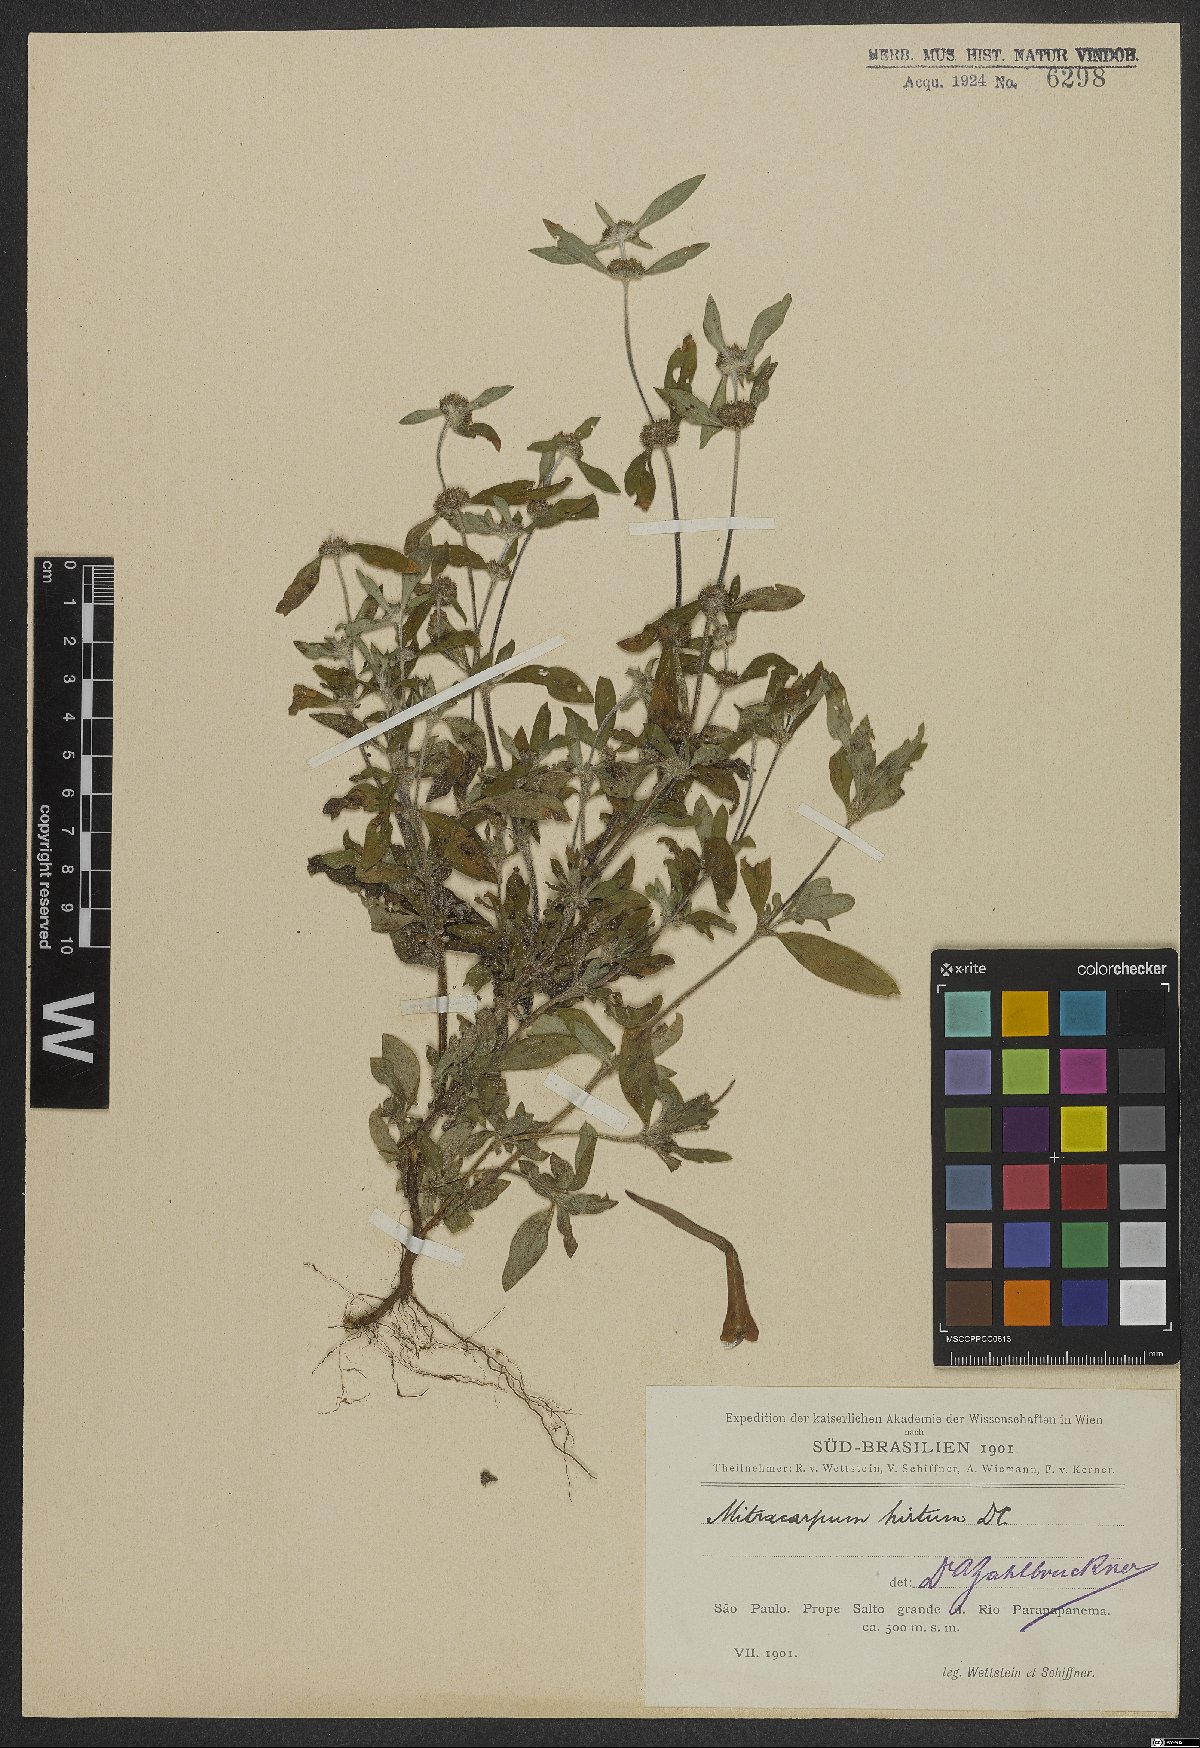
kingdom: Plantae
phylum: Tracheophyta
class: Magnoliopsida
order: Gentianales
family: Rubiaceae
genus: Mitracarpus
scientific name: Mitracarpus hirtus
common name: Tropical girdlepod
